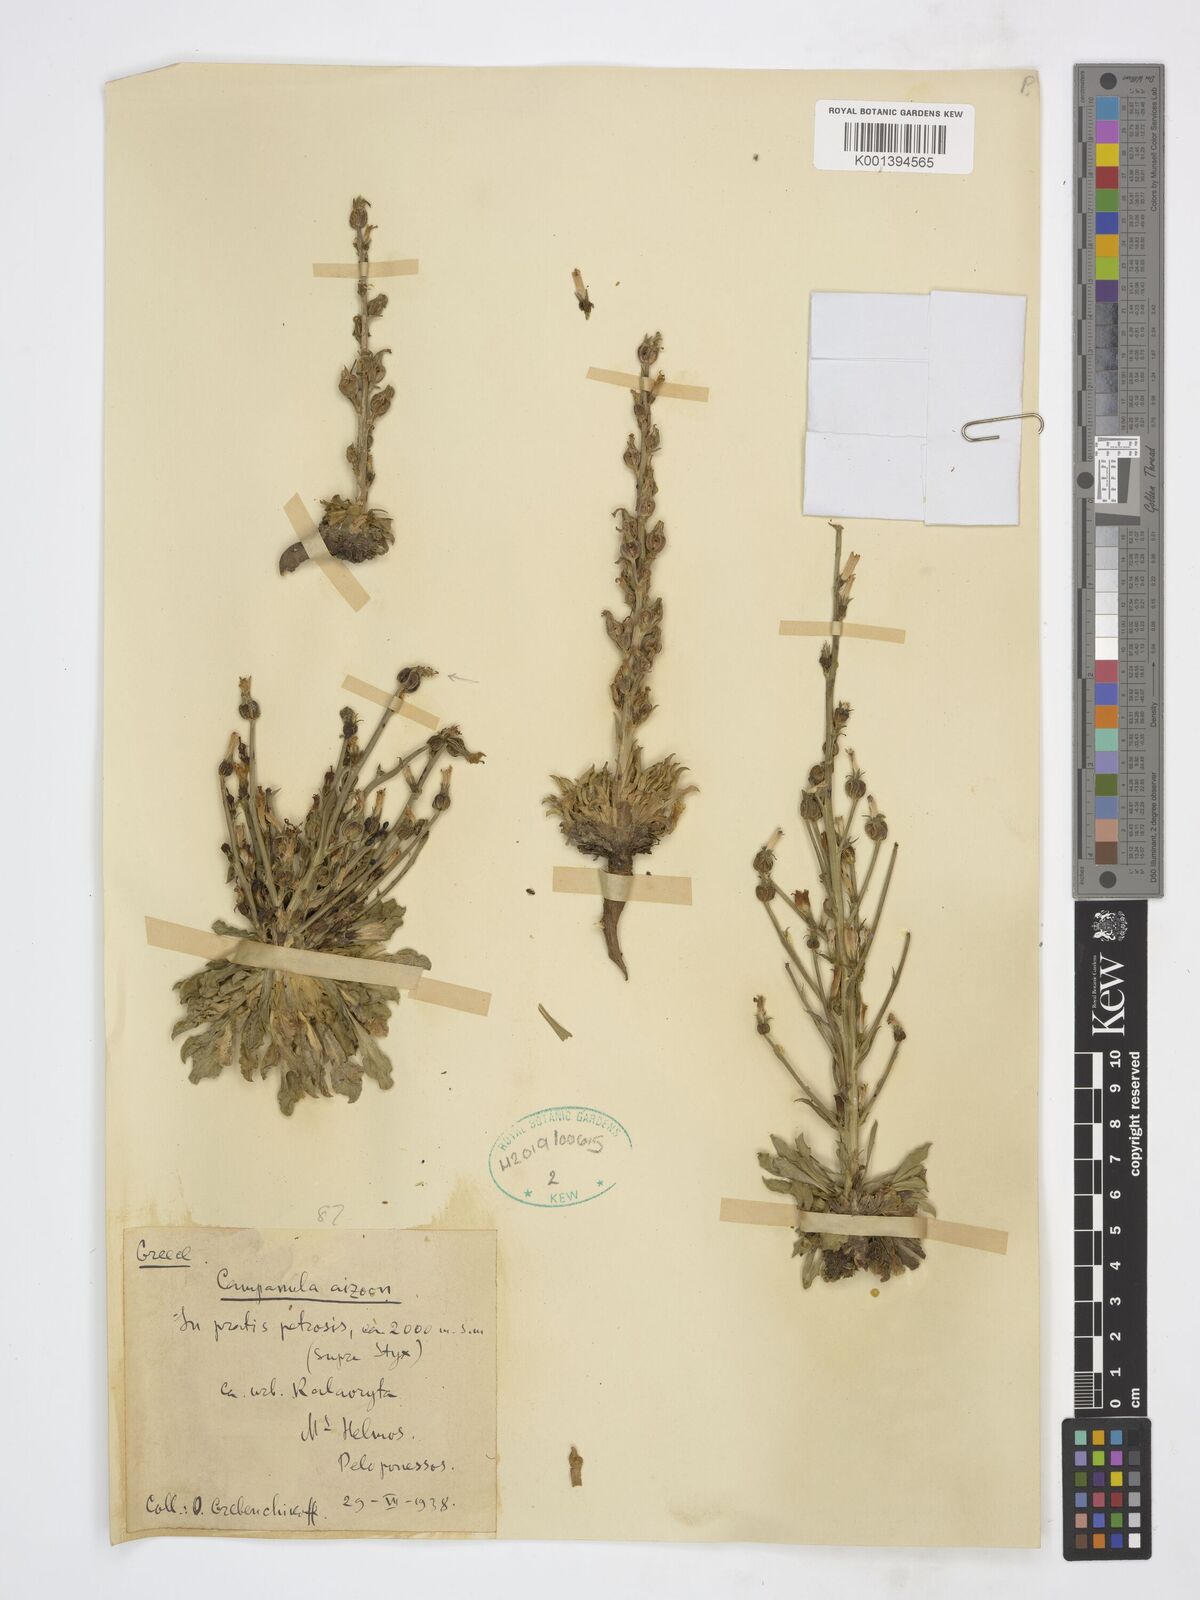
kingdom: Plantae
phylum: Tracheophyta
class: Magnoliopsida
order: Asterales
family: Campanulaceae
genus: Campanula
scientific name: Campanula aizoon
